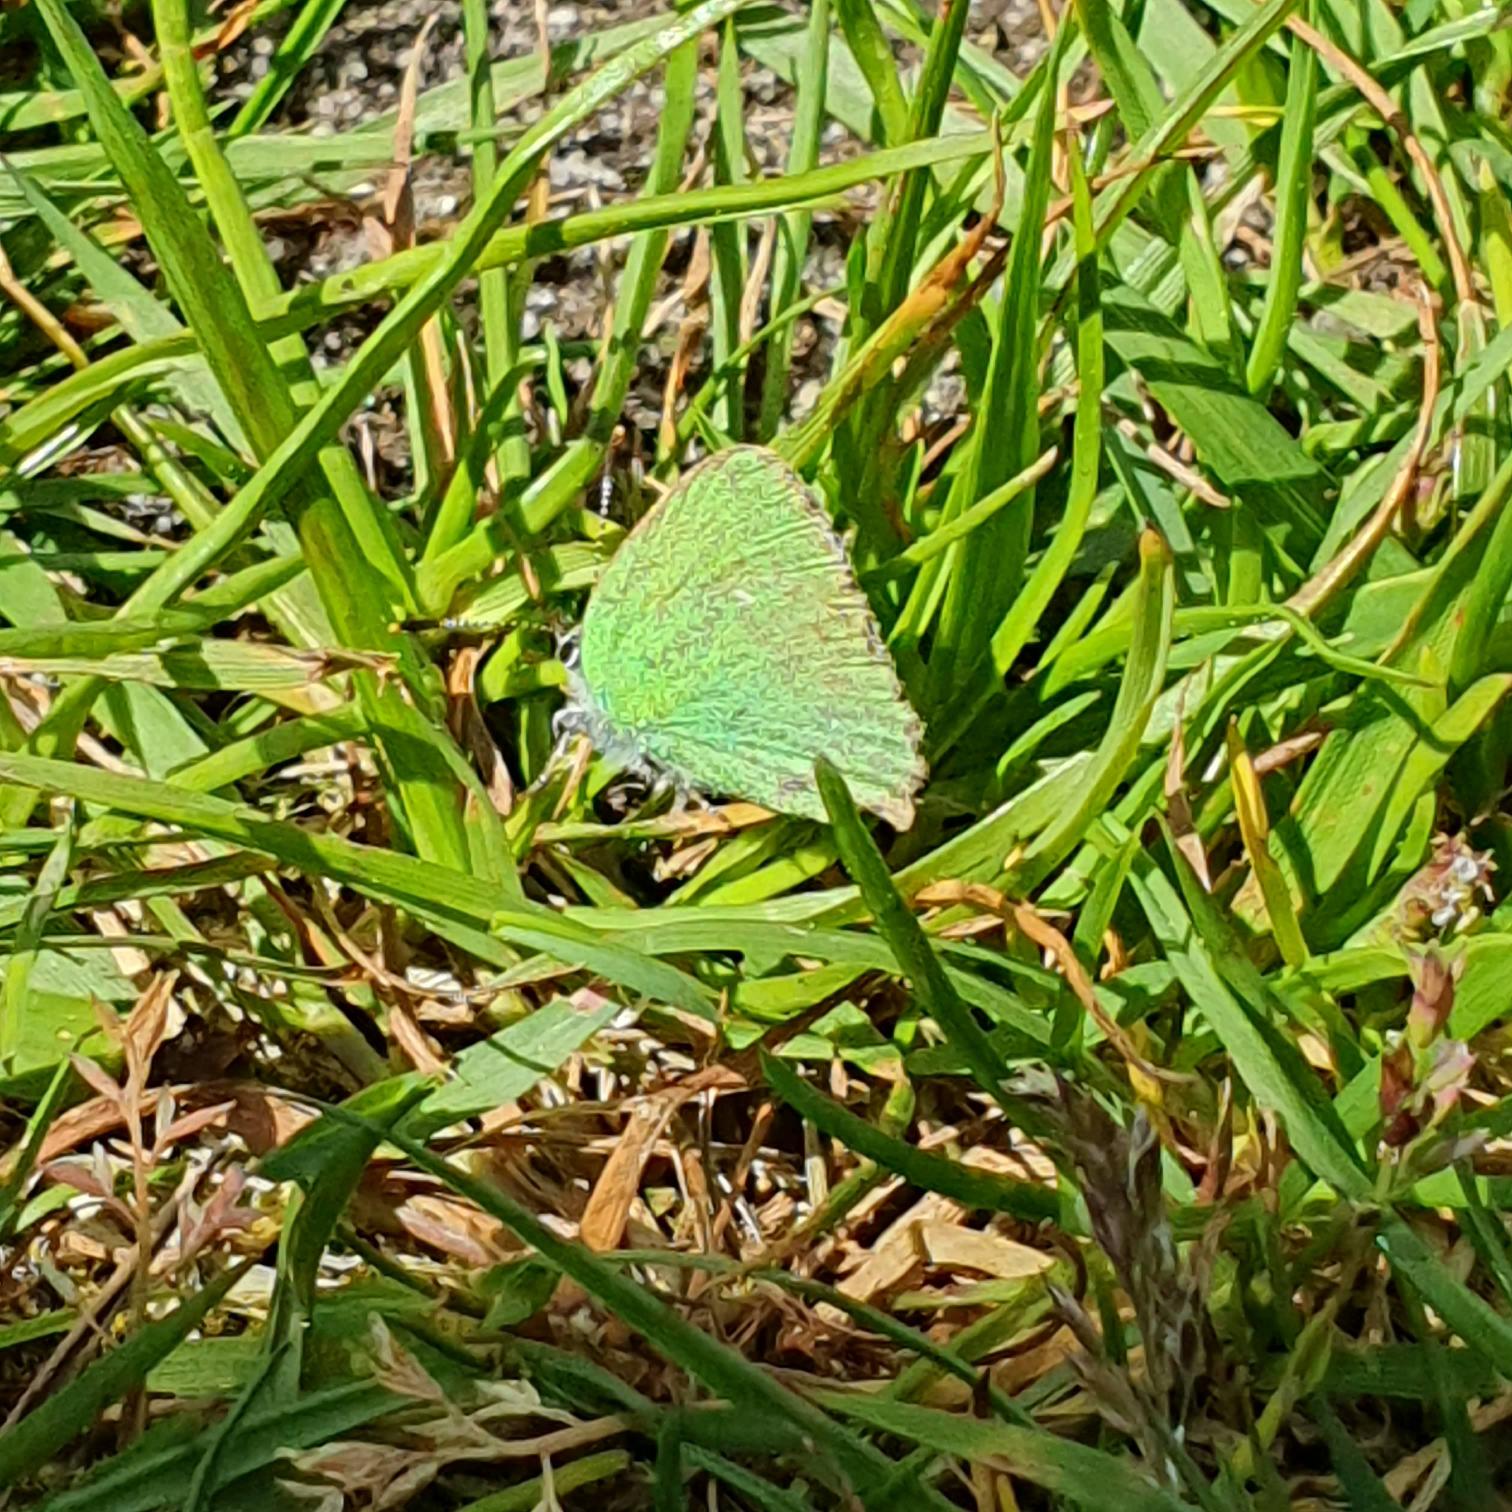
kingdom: Animalia
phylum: Arthropoda
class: Insecta
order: Lepidoptera
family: Lycaenidae
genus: Callophrys
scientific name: Callophrys rubi
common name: Grøn busksommerfugl
